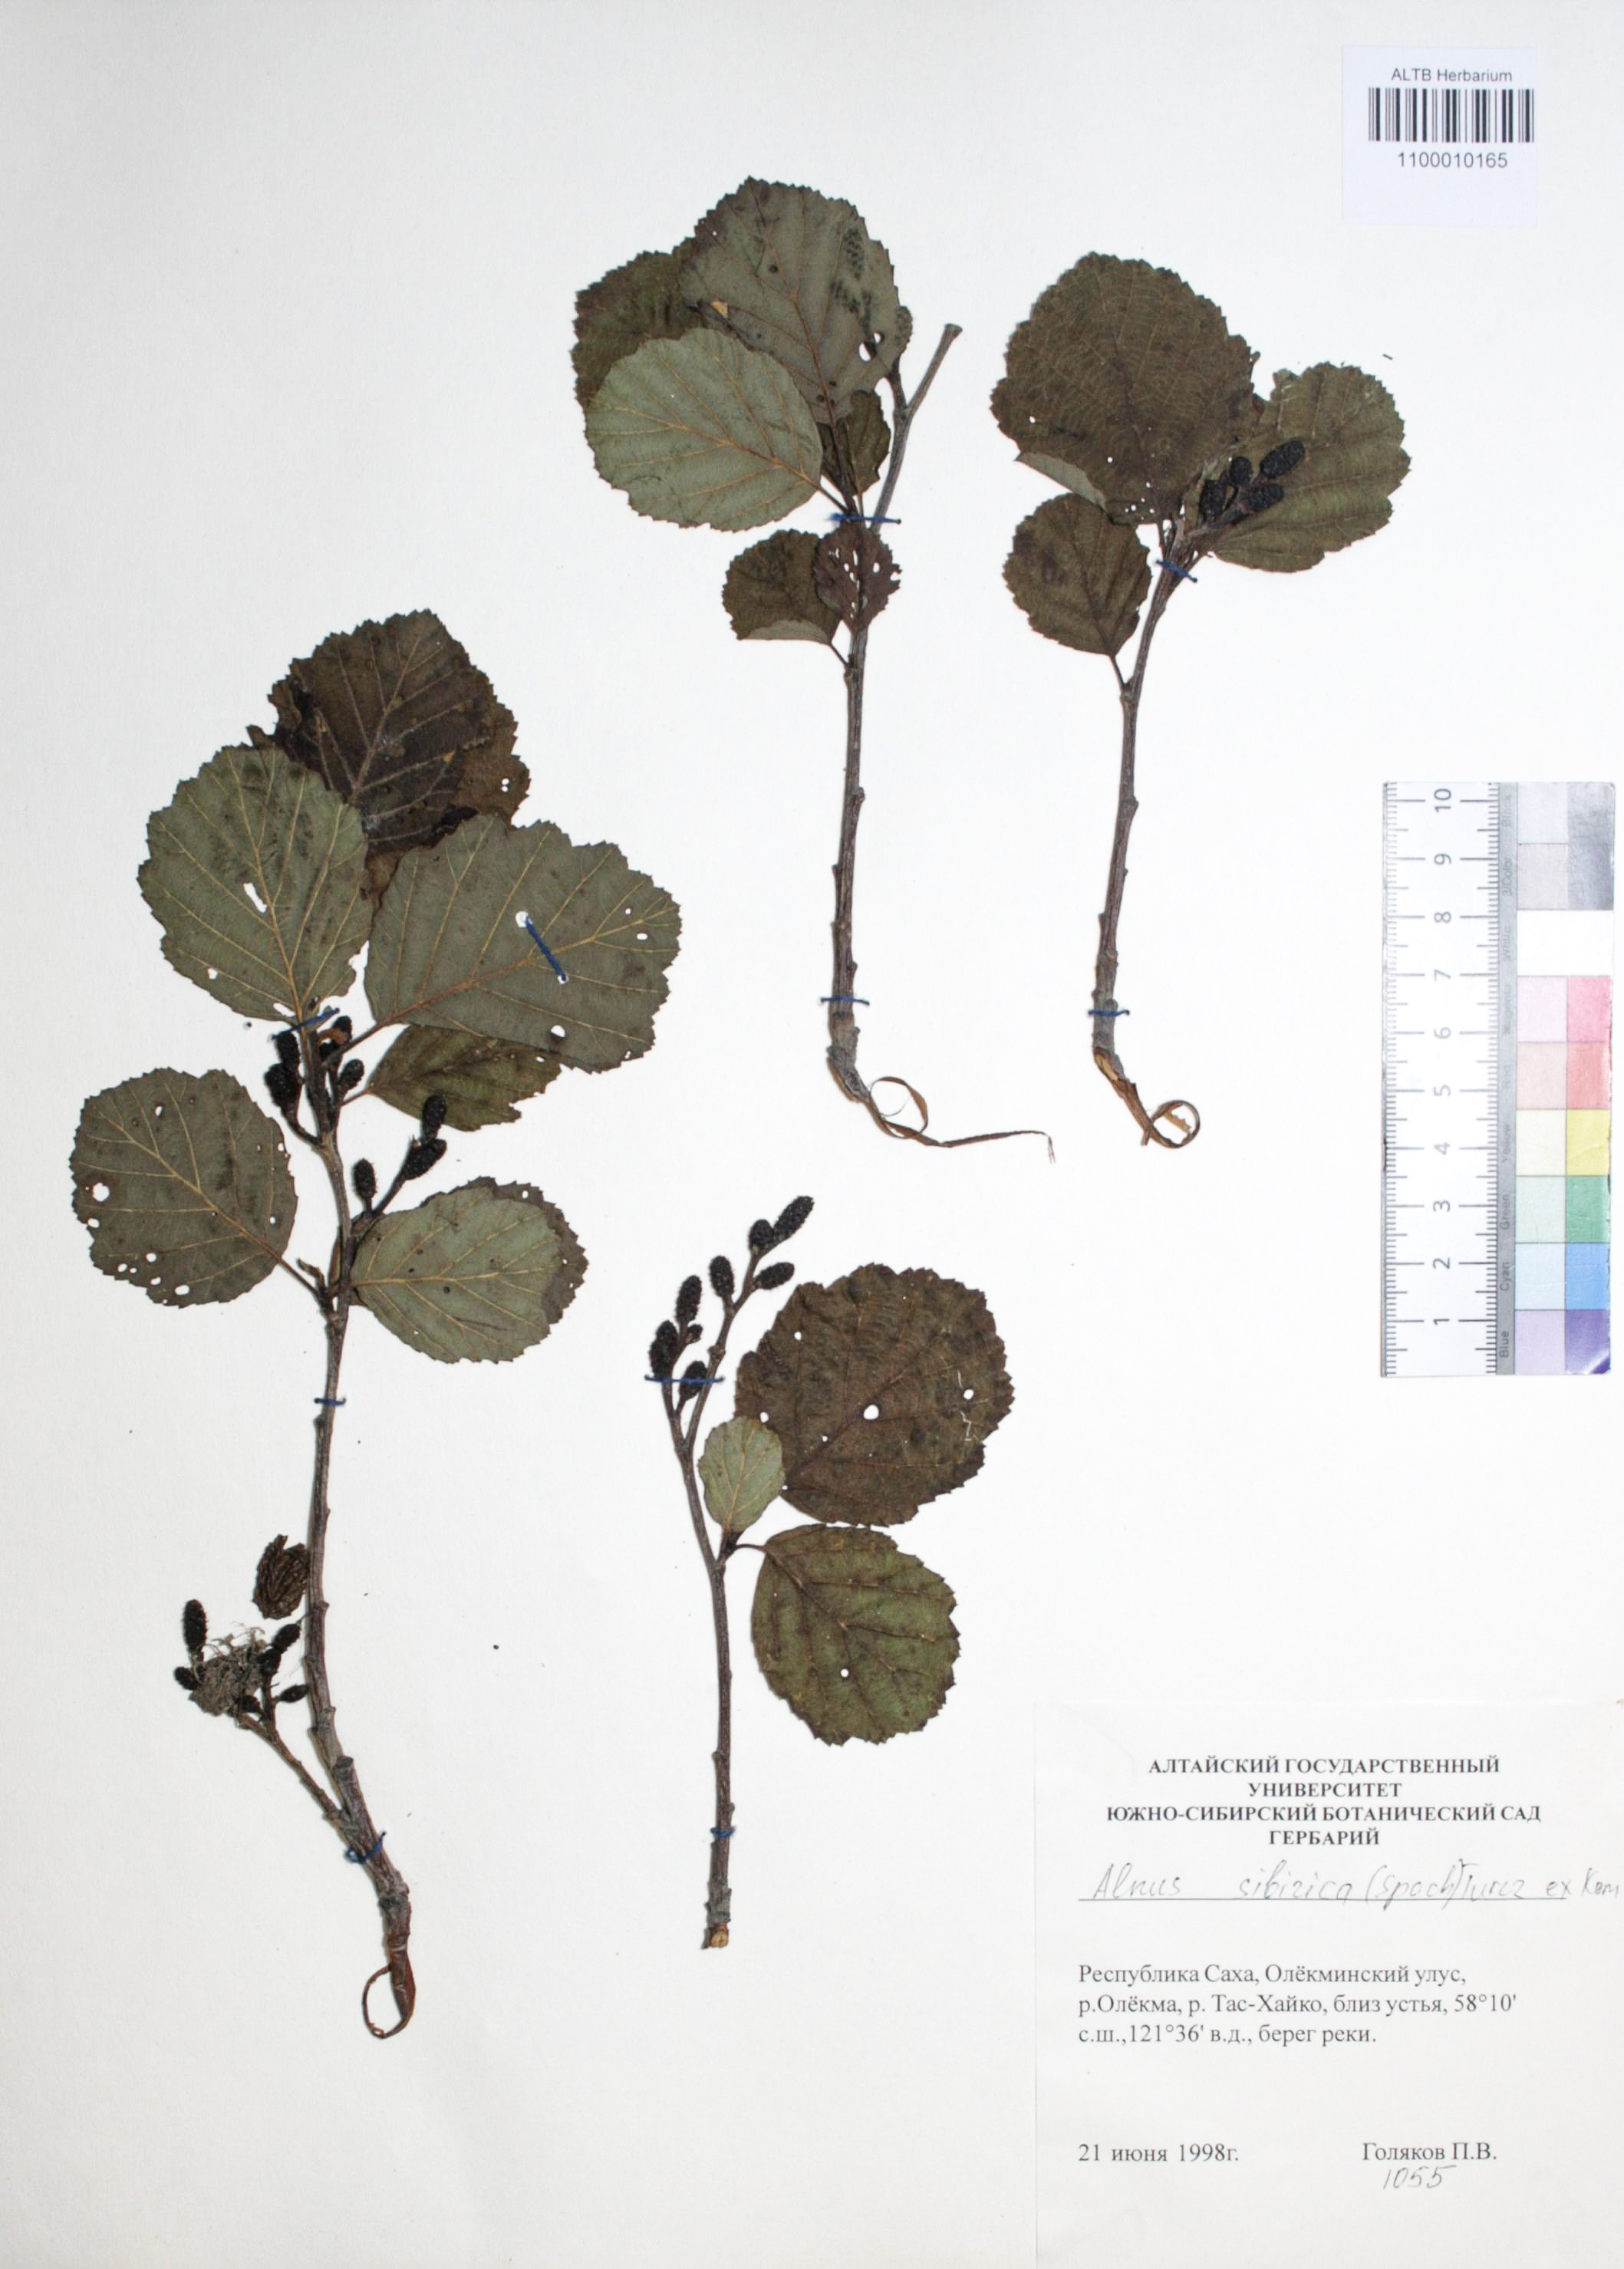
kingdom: Plantae
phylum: Tracheophyta
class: Magnoliopsida
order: Fagales
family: Betulaceae
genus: Alnus
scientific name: Alnus hirsuta
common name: Manchurian alder
